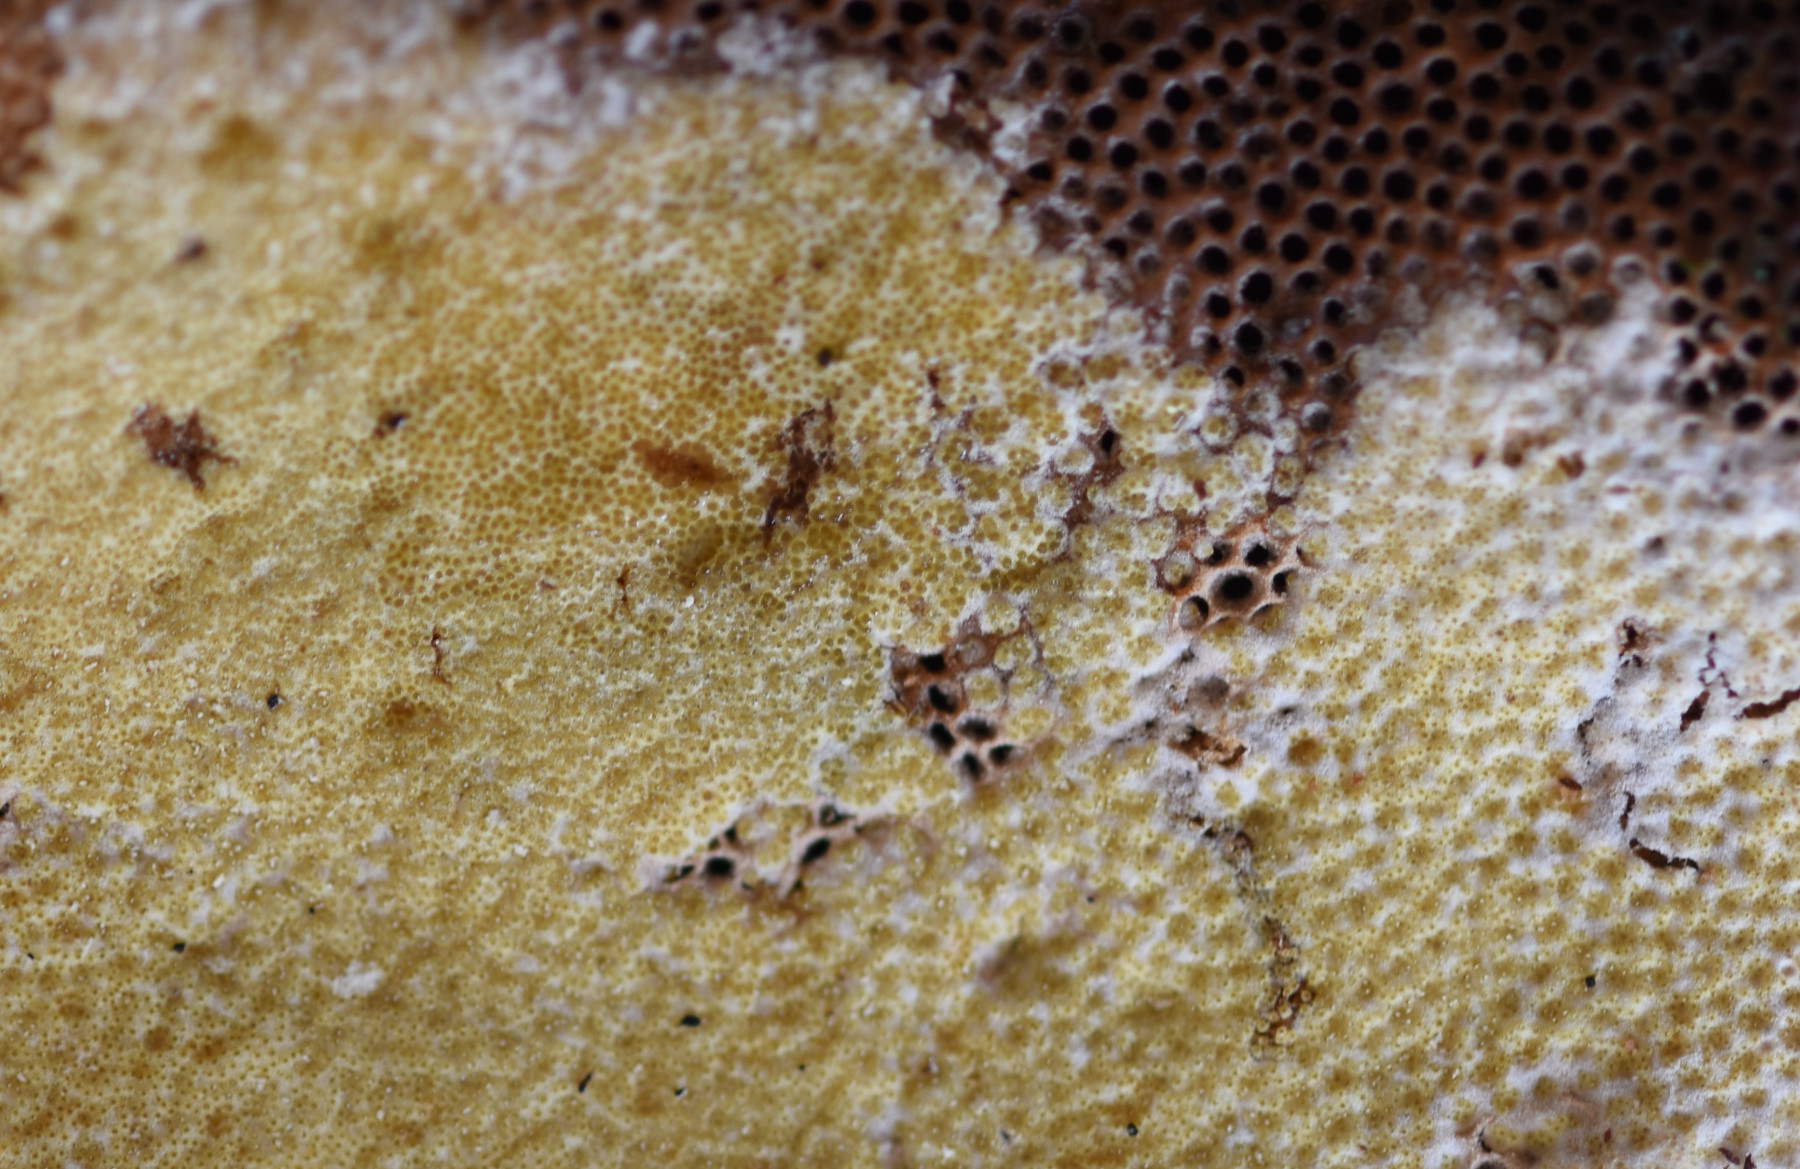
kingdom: Fungi
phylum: Ascomycota
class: Sordariomycetes
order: Hypocreales
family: Hypocreaceae
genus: Trichoderma
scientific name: Trichoderma pulvinatum
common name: snyltende kødkerne
